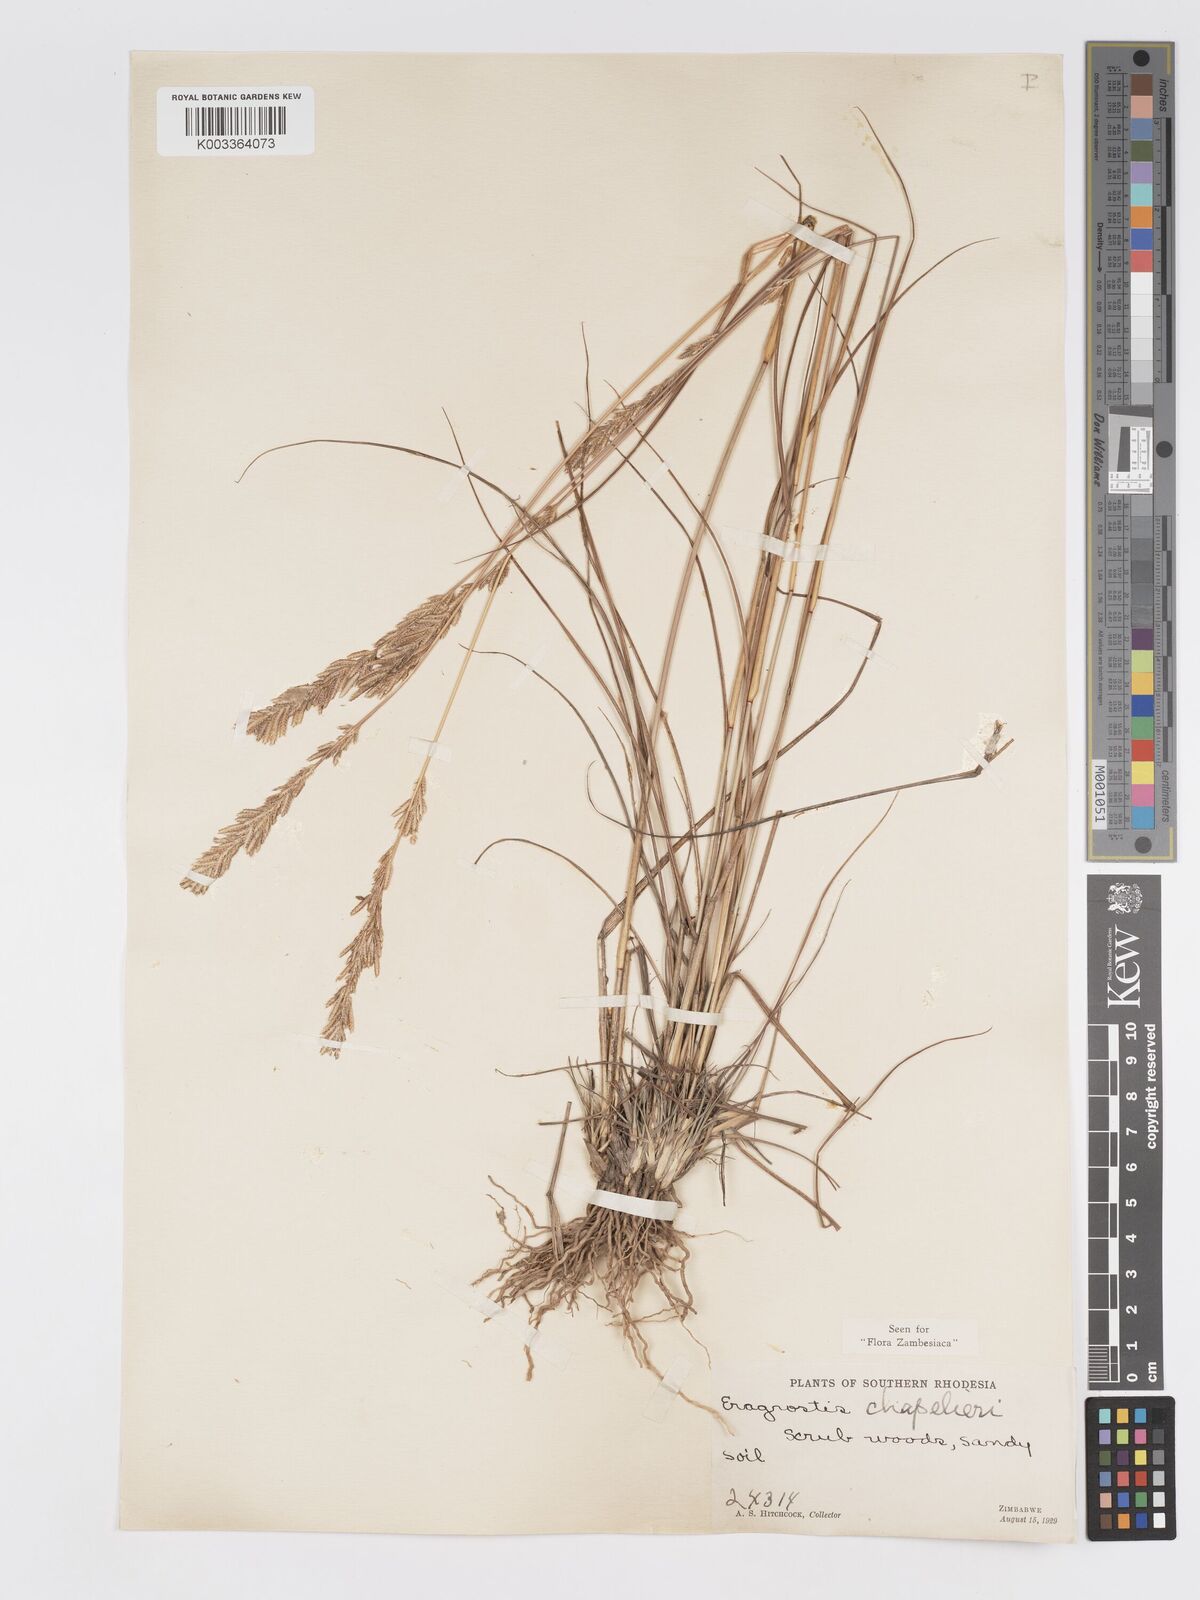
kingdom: Plantae
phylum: Tracheophyta
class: Liliopsida
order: Poales
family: Poaceae
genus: Eragrostis
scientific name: Eragrostis chapelieri
